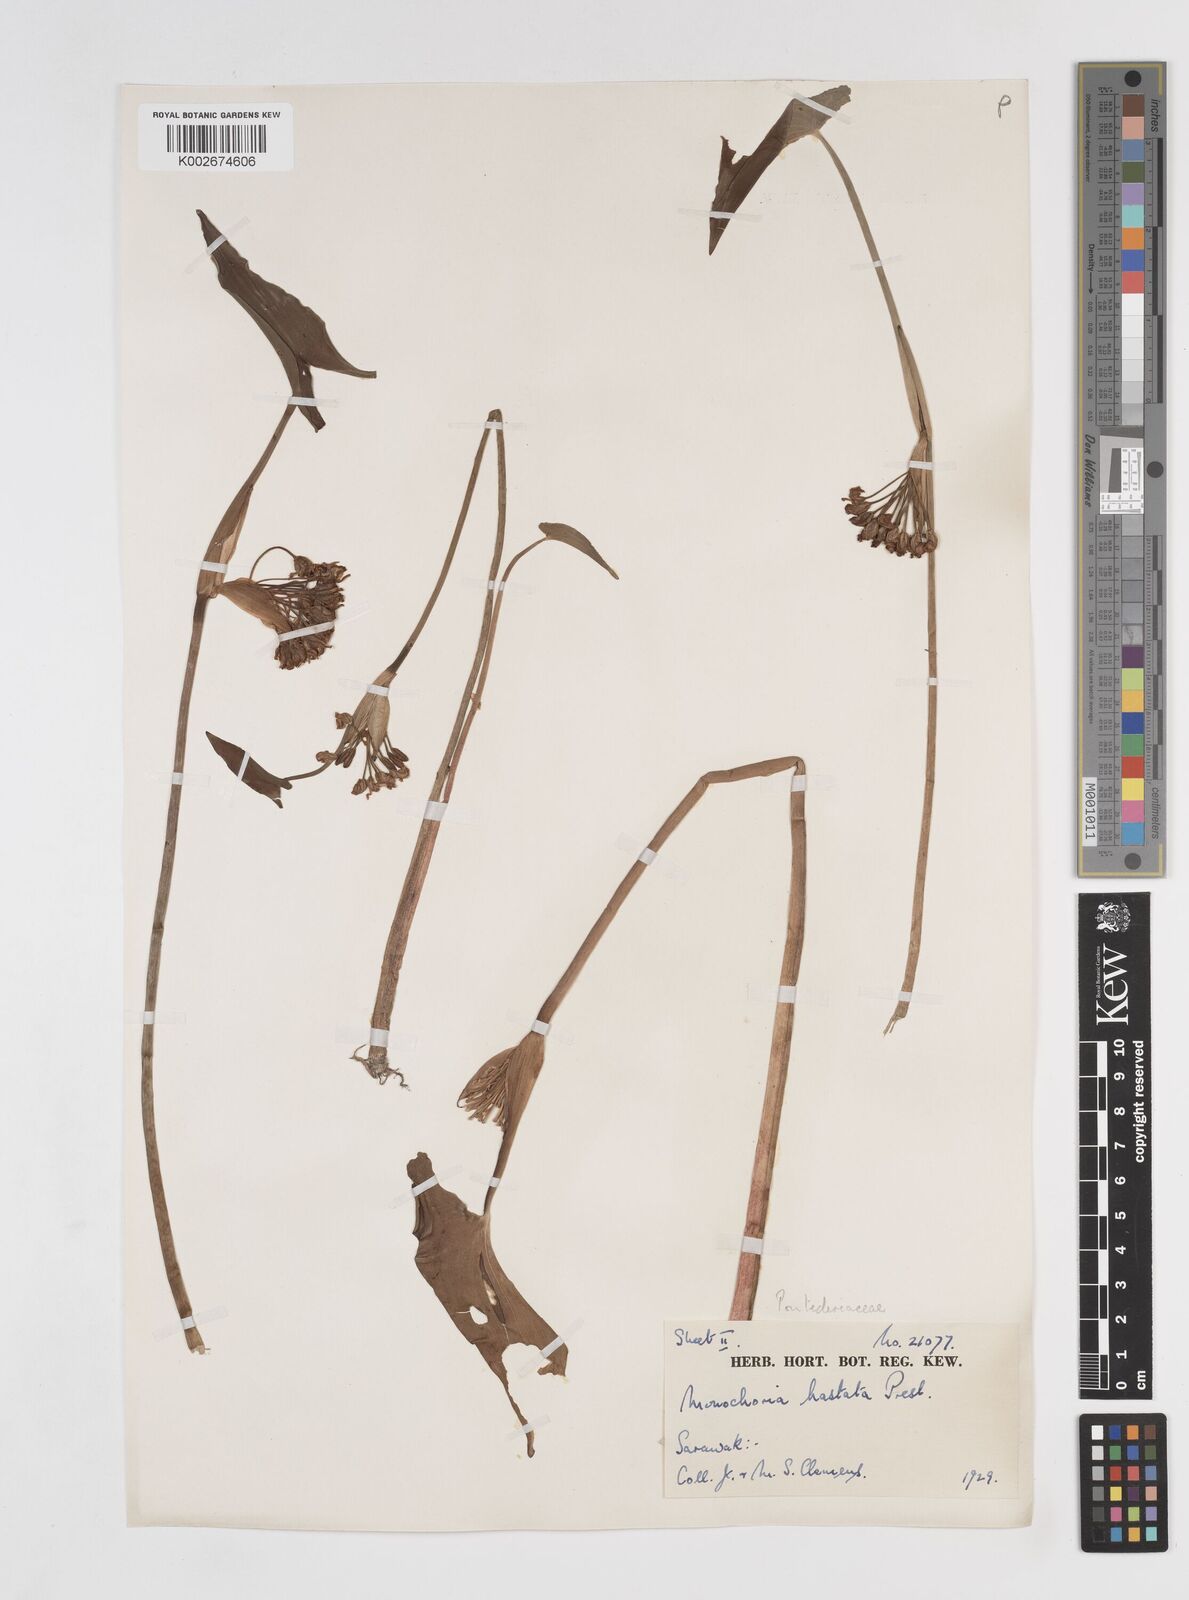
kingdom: Plantae
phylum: Tracheophyta
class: Liliopsida
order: Commelinales
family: Pontederiaceae
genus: Pontederia
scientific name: Pontederia hastata
